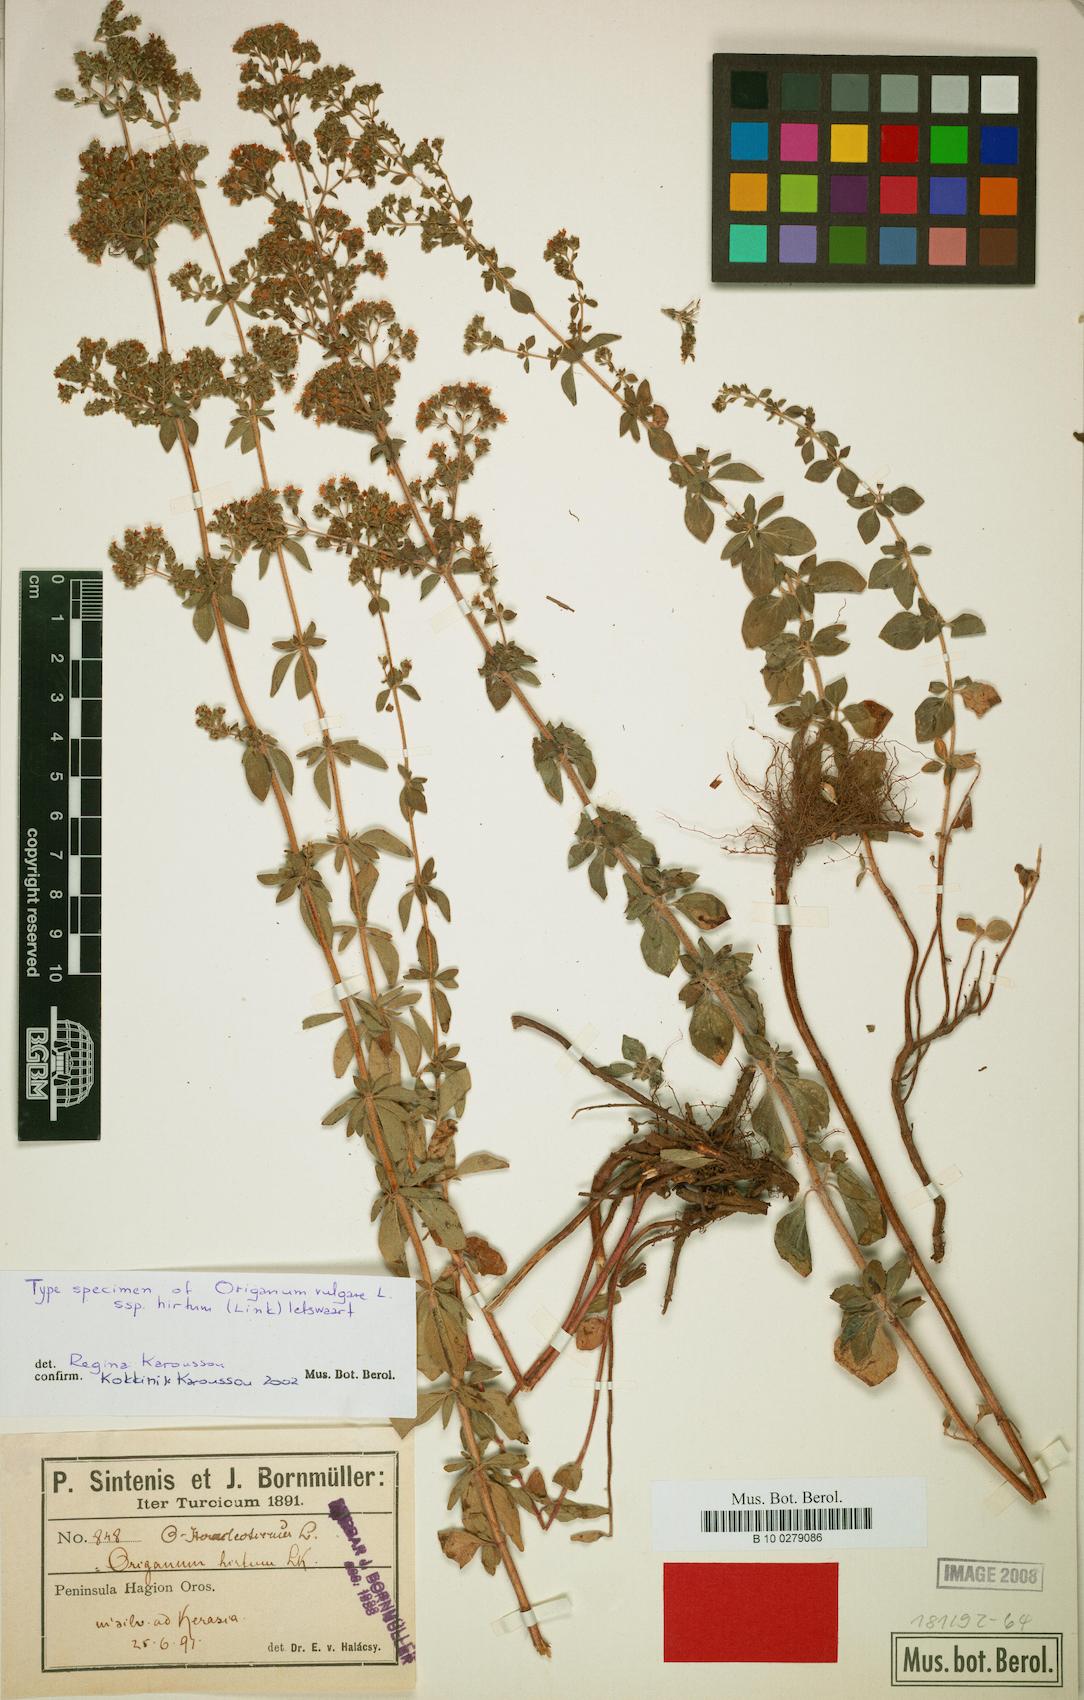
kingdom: Plantae
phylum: Tracheophyta
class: Magnoliopsida
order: Lamiales
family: Lamiaceae
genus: Origanum
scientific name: Origanum vulgare
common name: Wild marjoram
